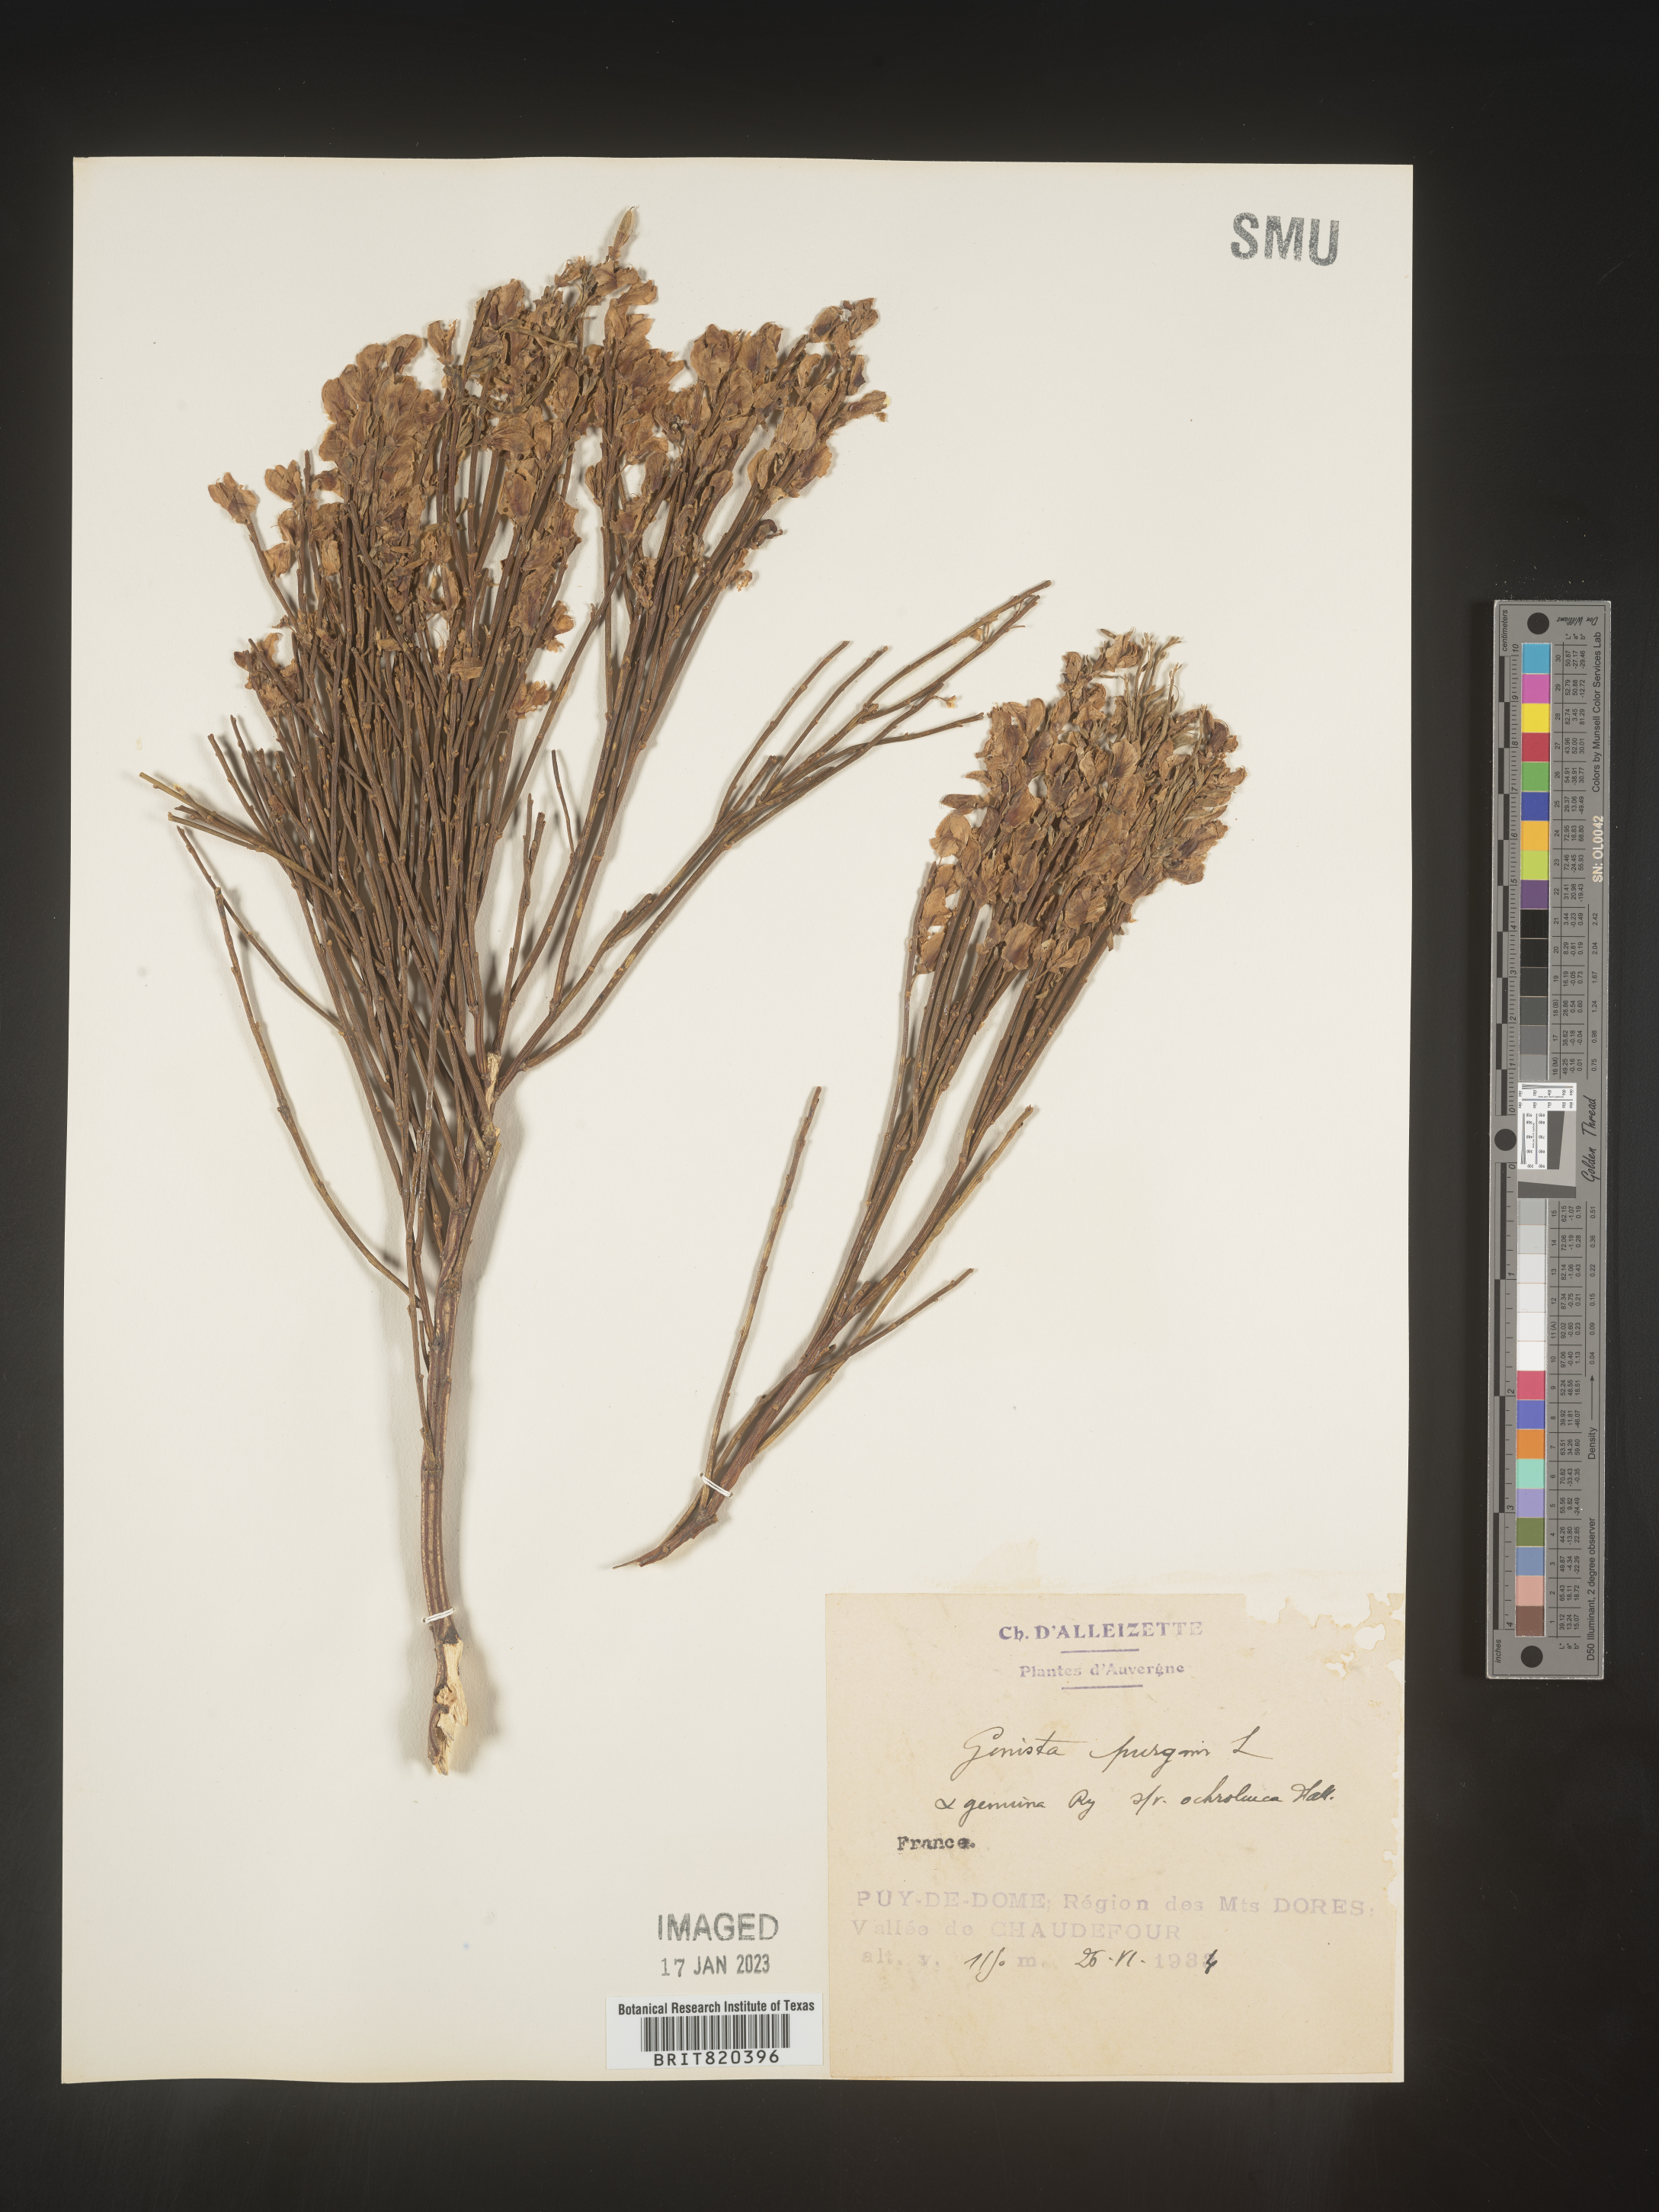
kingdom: Plantae
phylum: Tracheophyta
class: Magnoliopsida
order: Fabales
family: Fabaceae
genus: Genista
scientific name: Genista
